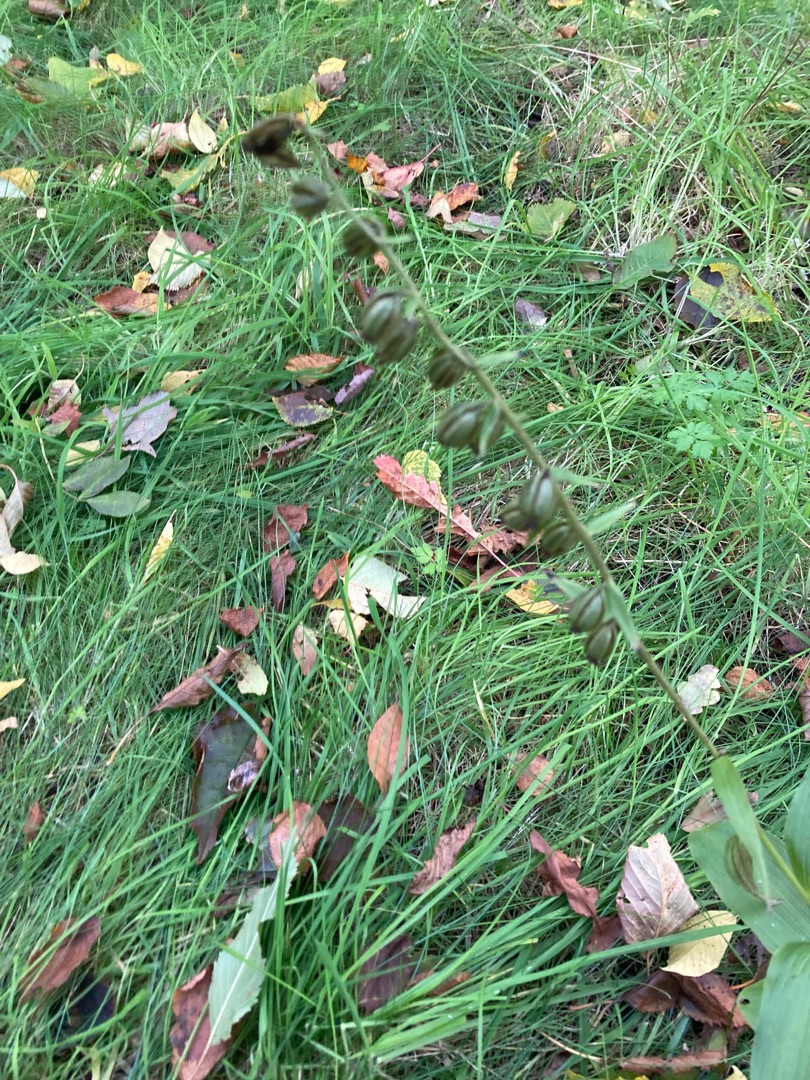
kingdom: Plantae
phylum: Tracheophyta
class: Liliopsida
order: Asparagales
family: Orchidaceae
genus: Epipactis
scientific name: Epipactis helleborine
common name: Skov-hullæbe
